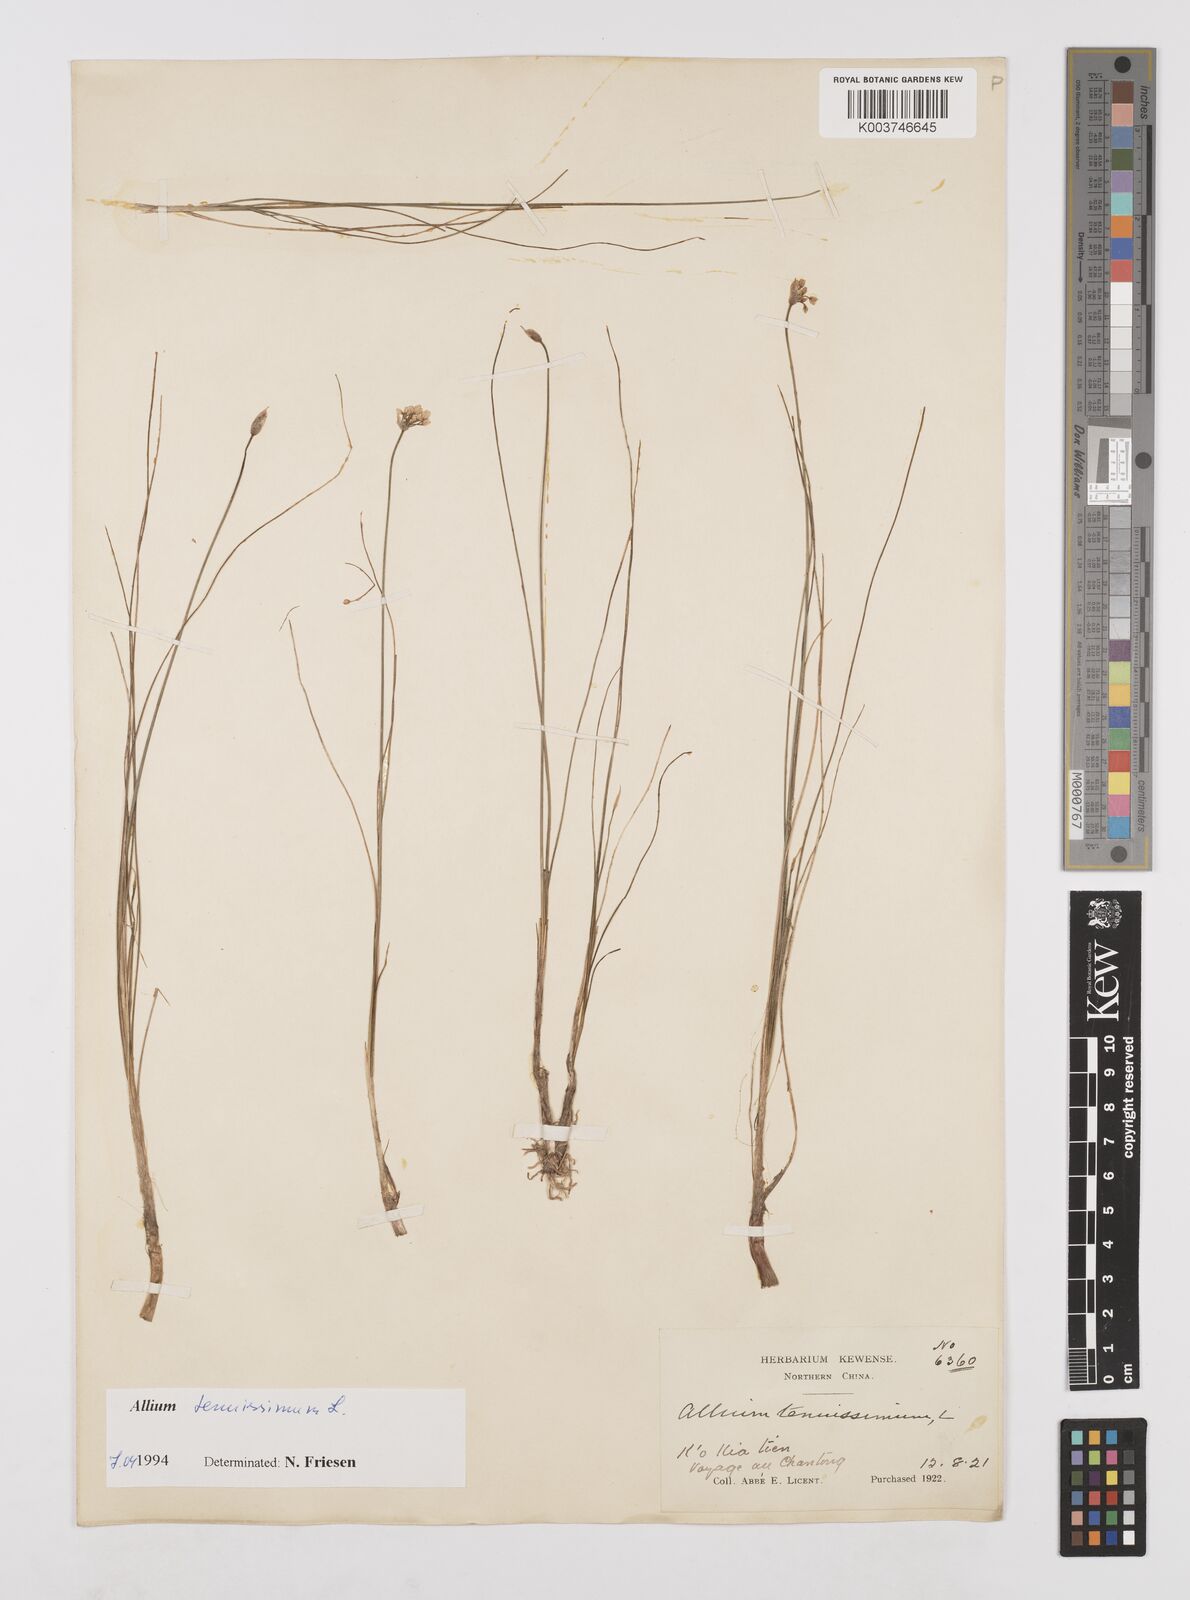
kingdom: Plantae
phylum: Tracheophyta
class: Liliopsida
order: Asparagales
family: Amaryllidaceae
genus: Allium
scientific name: Allium tenuissimum
